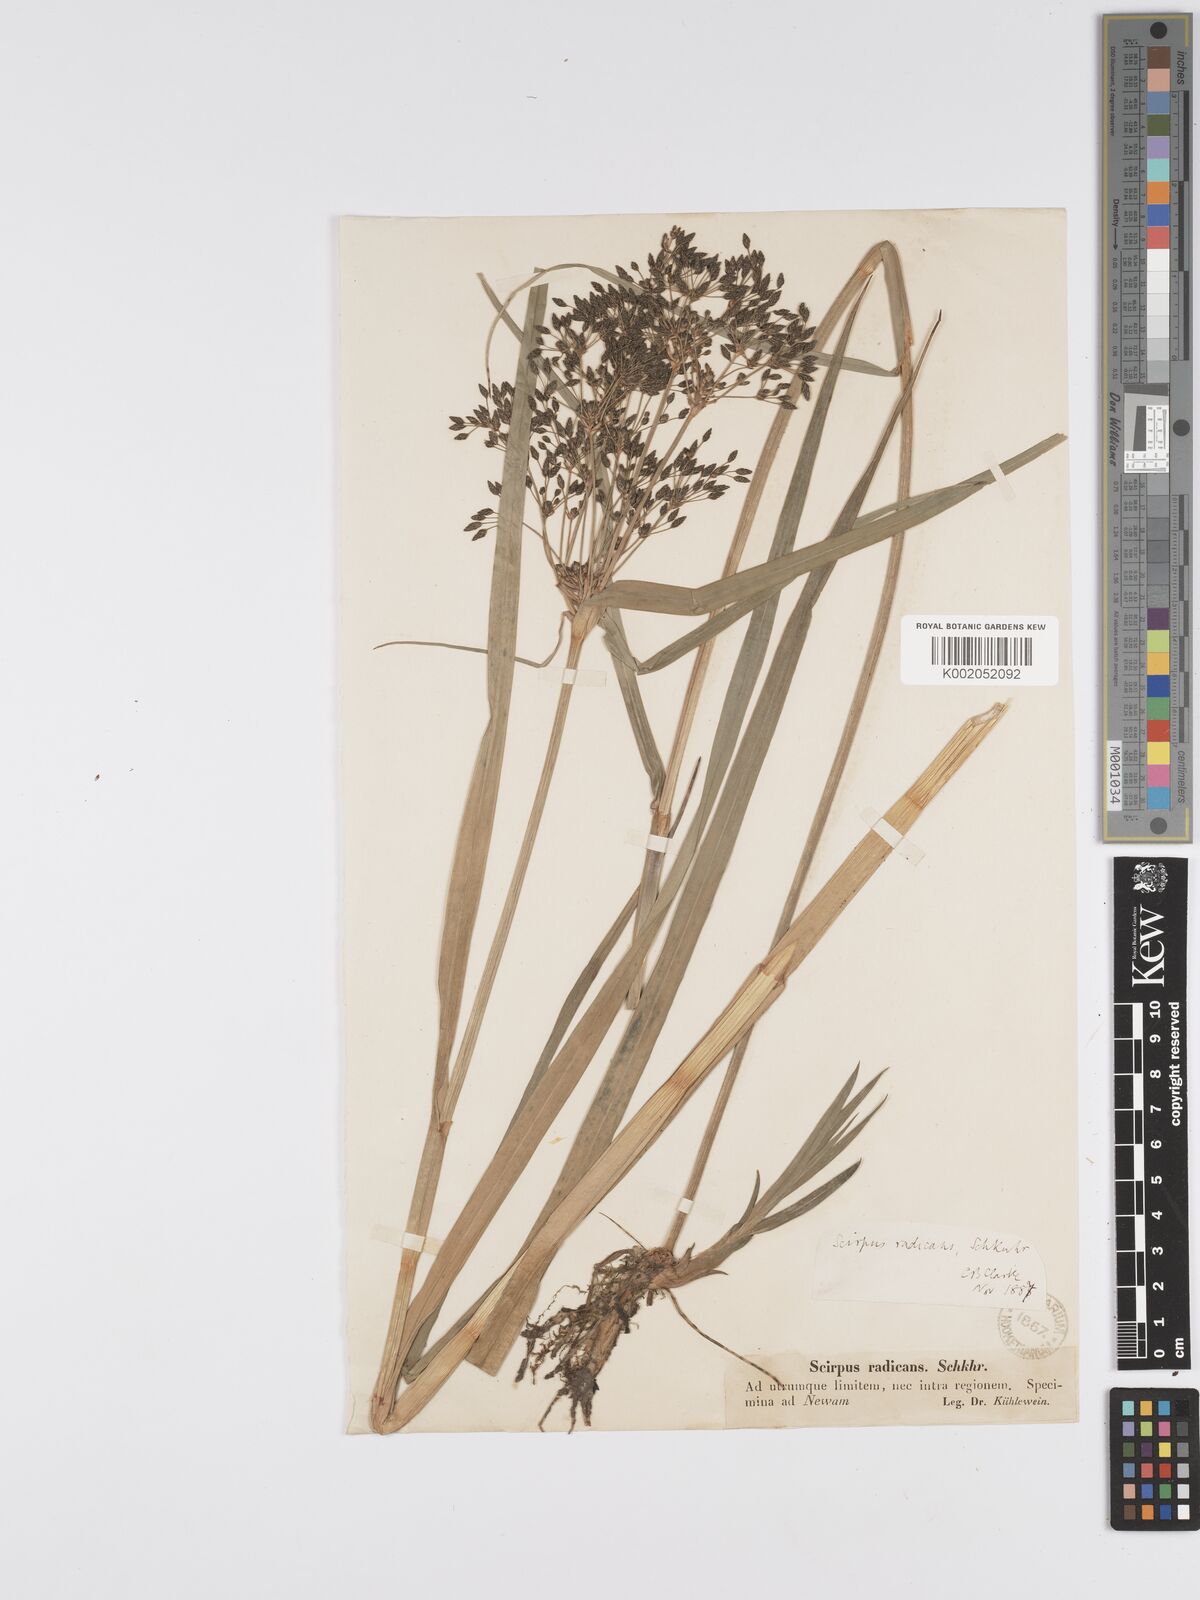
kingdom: Plantae
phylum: Tracheophyta
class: Liliopsida
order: Poales
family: Cyperaceae
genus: Scirpus
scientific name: Scirpus radicans
